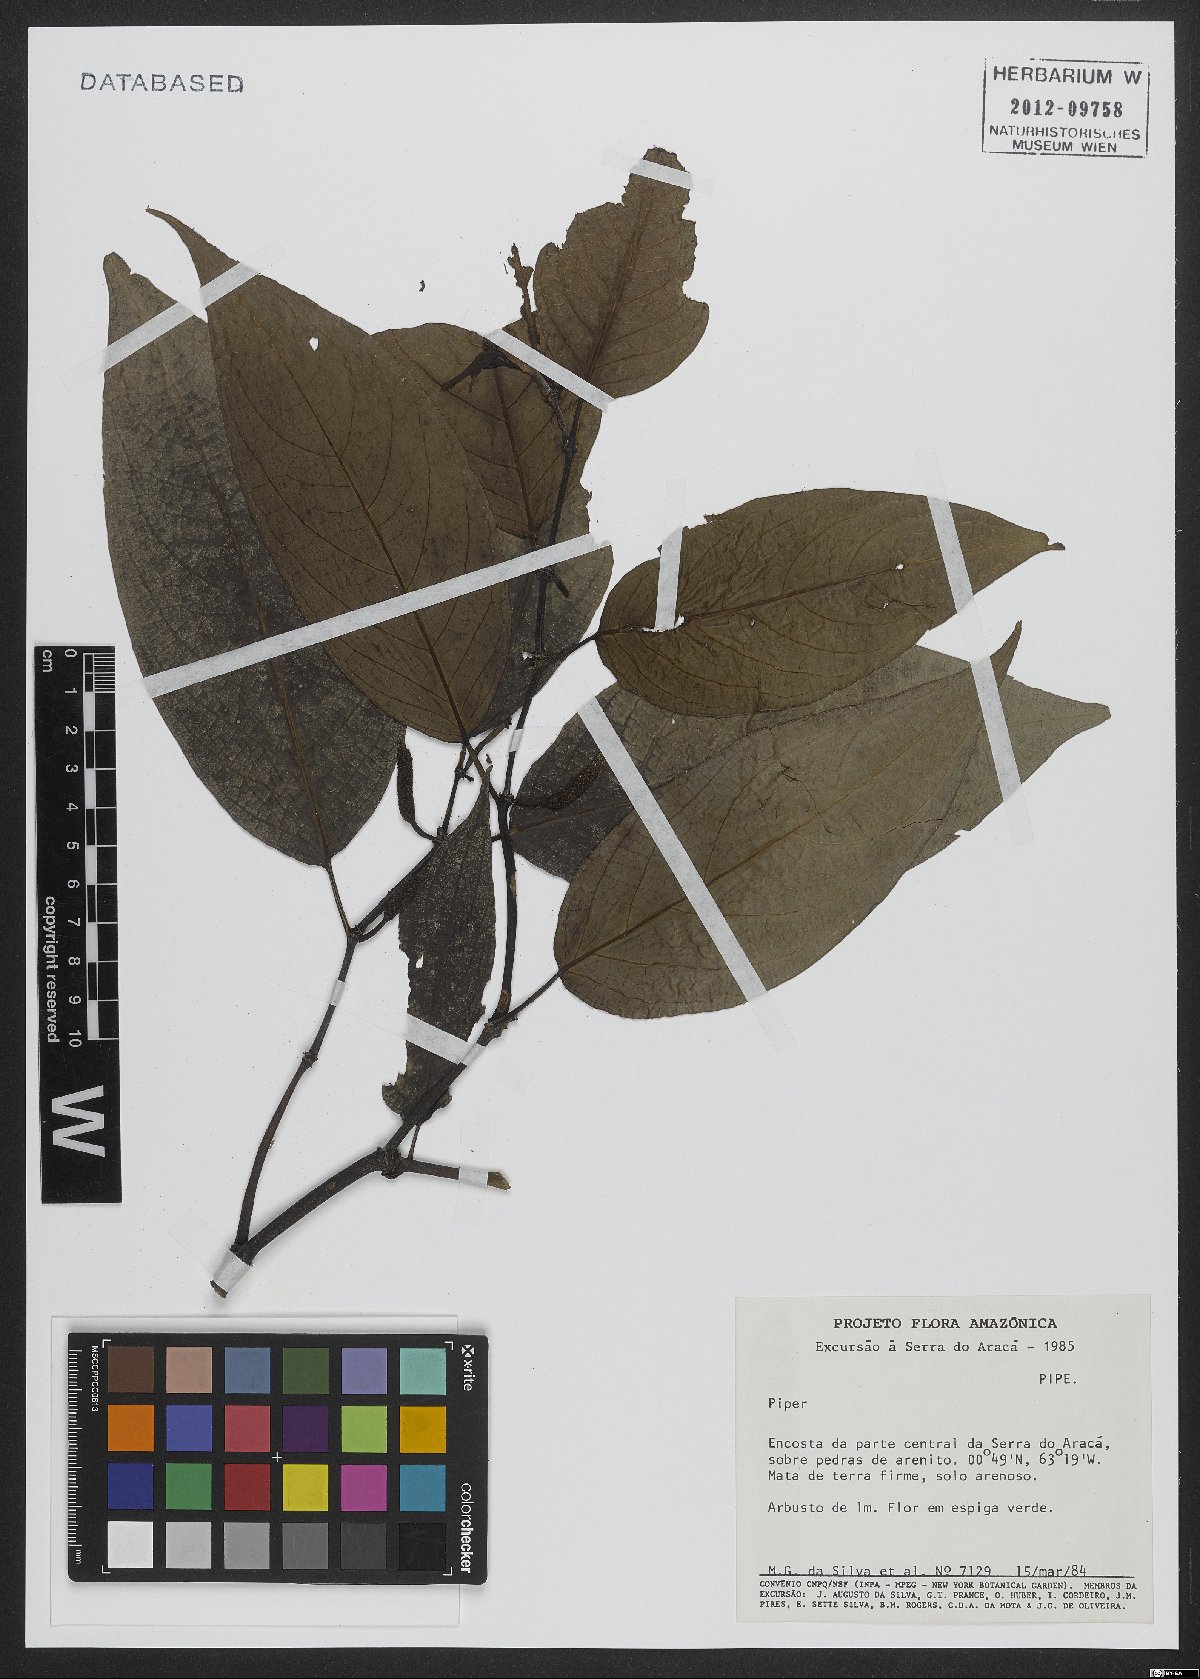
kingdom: Plantae
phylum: Tracheophyta
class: Magnoliopsida
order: Piperales
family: Piperaceae
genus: Piper
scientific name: Piper
